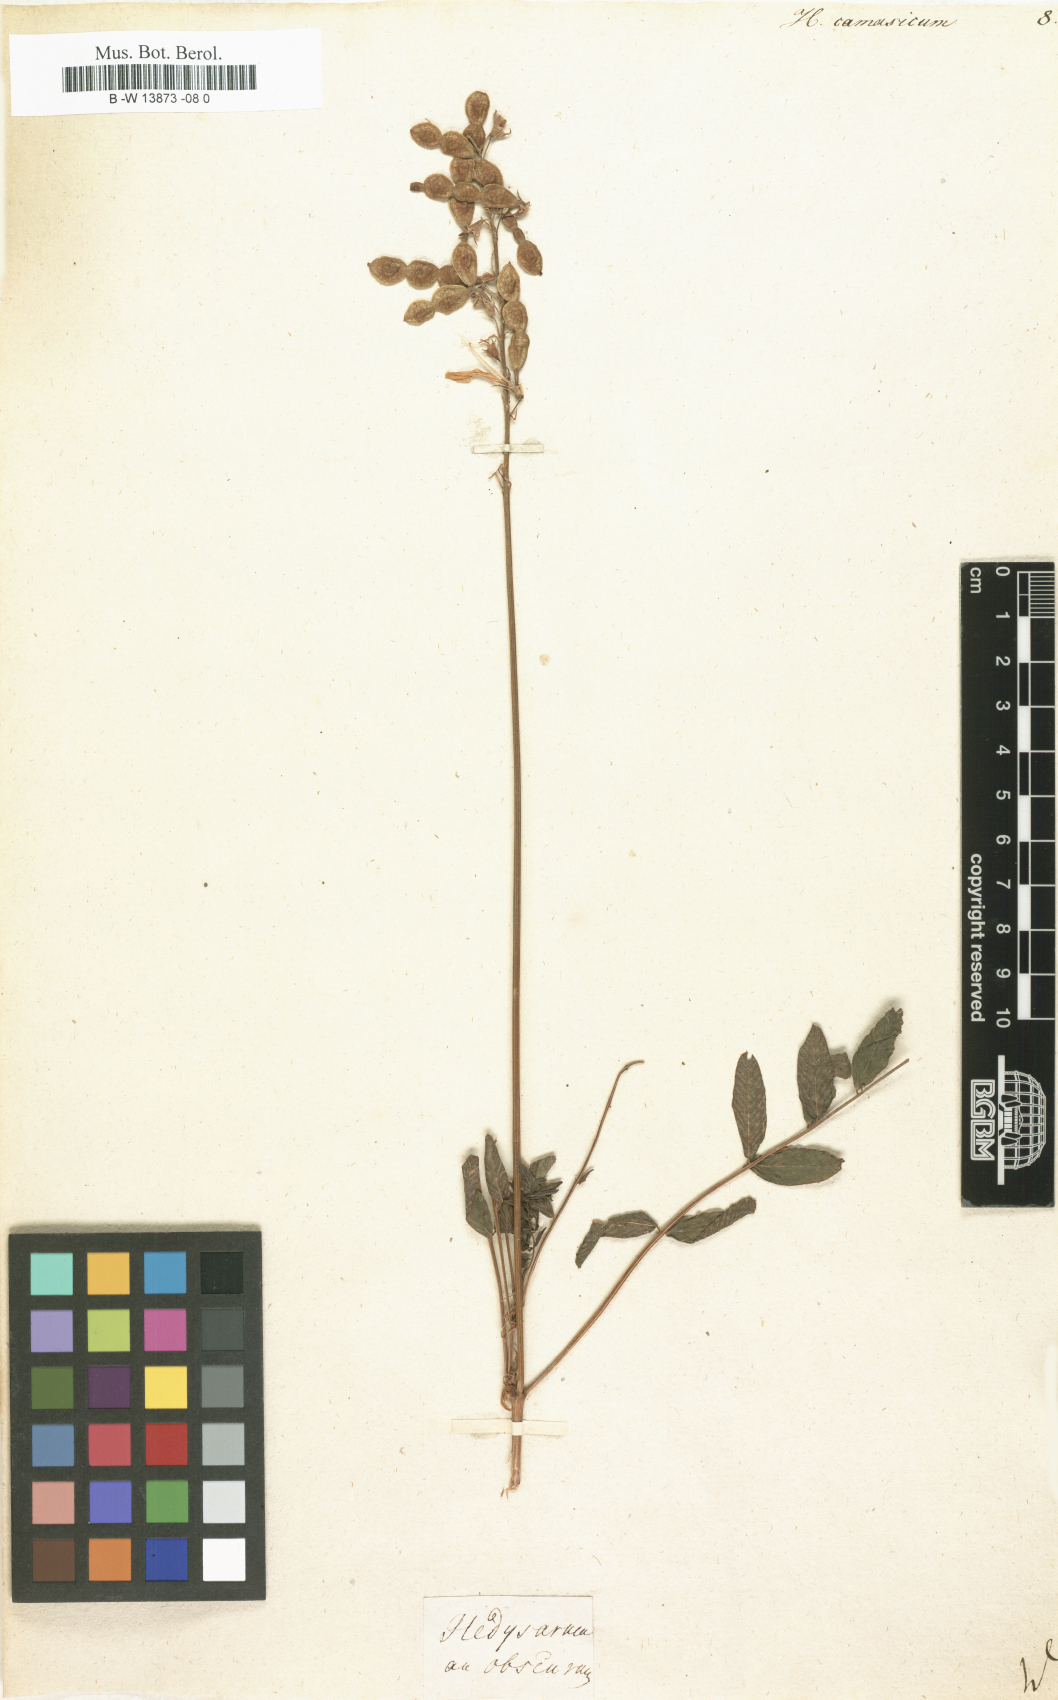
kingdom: Plantae
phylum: Tracheophyta
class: Magnoliopsida
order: Fabales
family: Fabaceae
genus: Hedysarum
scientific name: Hedysarum caucasicum
